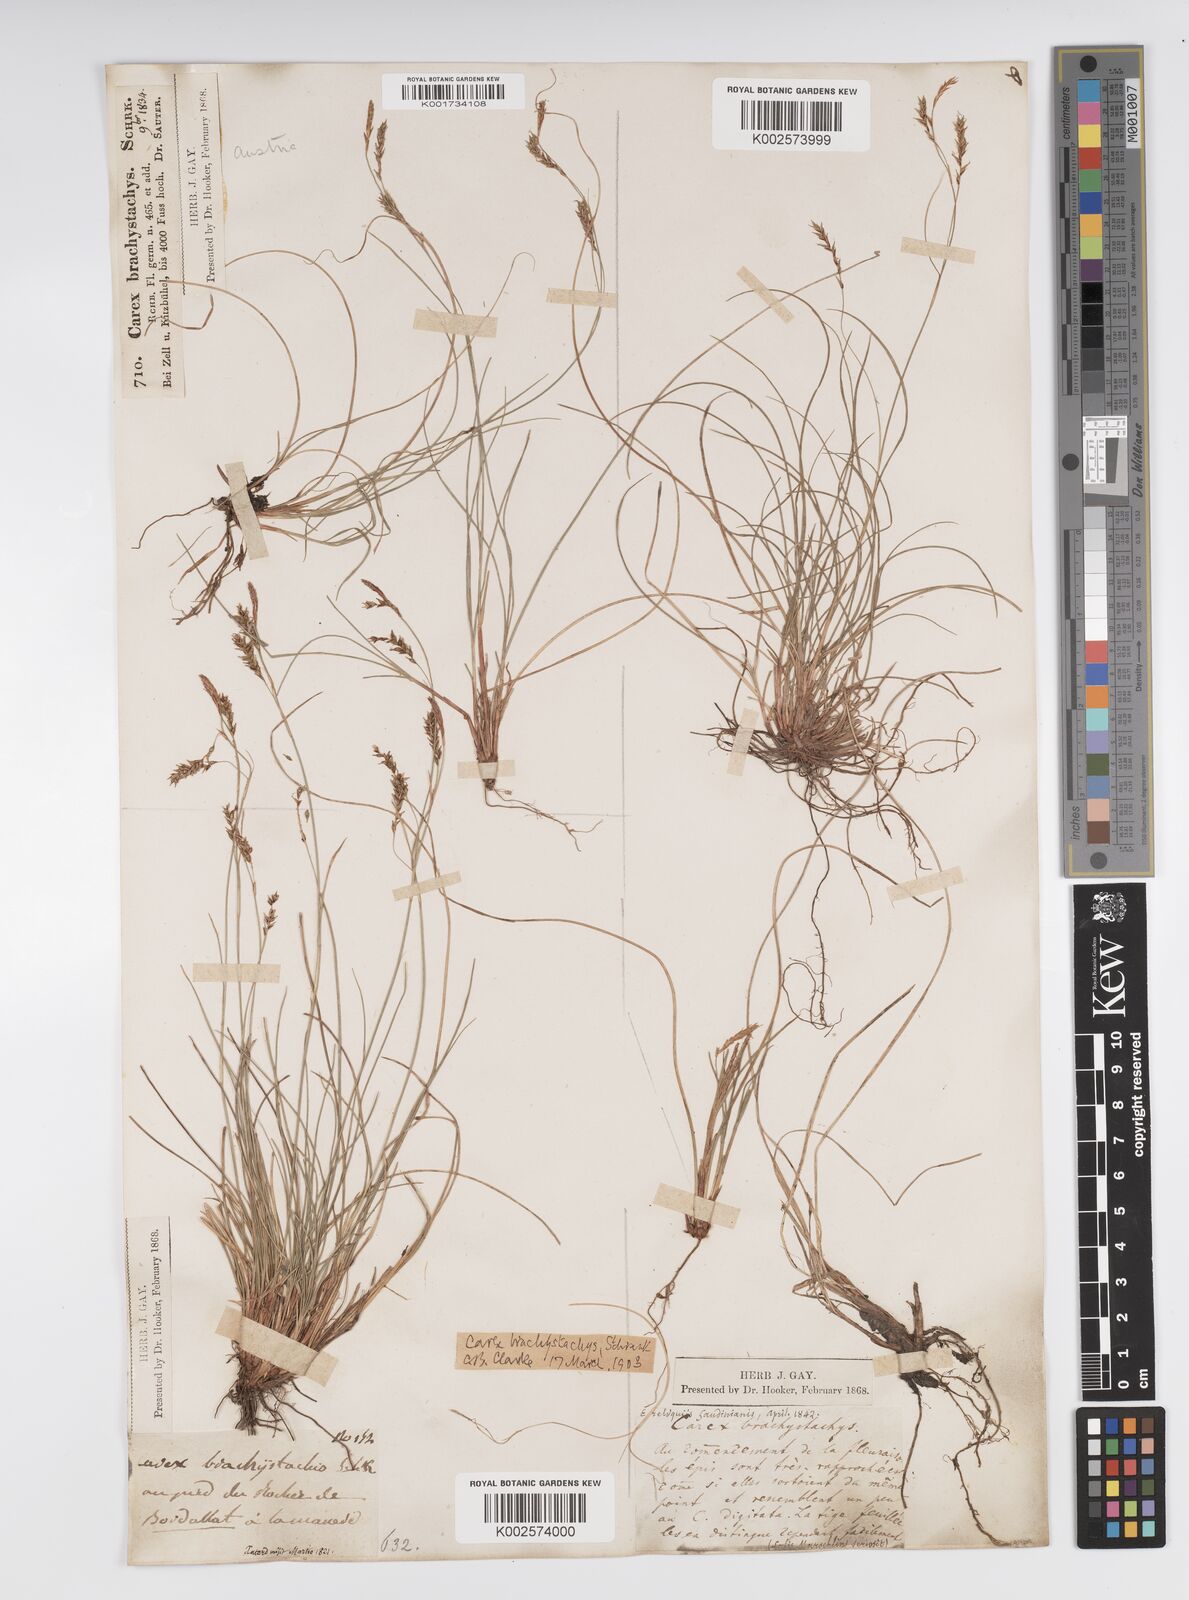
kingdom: Plantae
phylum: Tracheophyta
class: Liliopsida
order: Poales
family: Cyperaceae
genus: Carex
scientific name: Carex brachystachys
